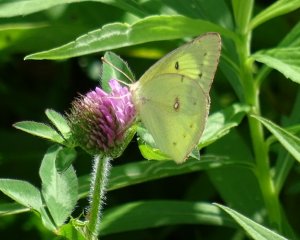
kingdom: Animalia
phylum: Arthropoda
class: Insecta
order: Lepidoptera
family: Pieridae
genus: Colias
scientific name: Colias philodice
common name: Clouded Sulphur
